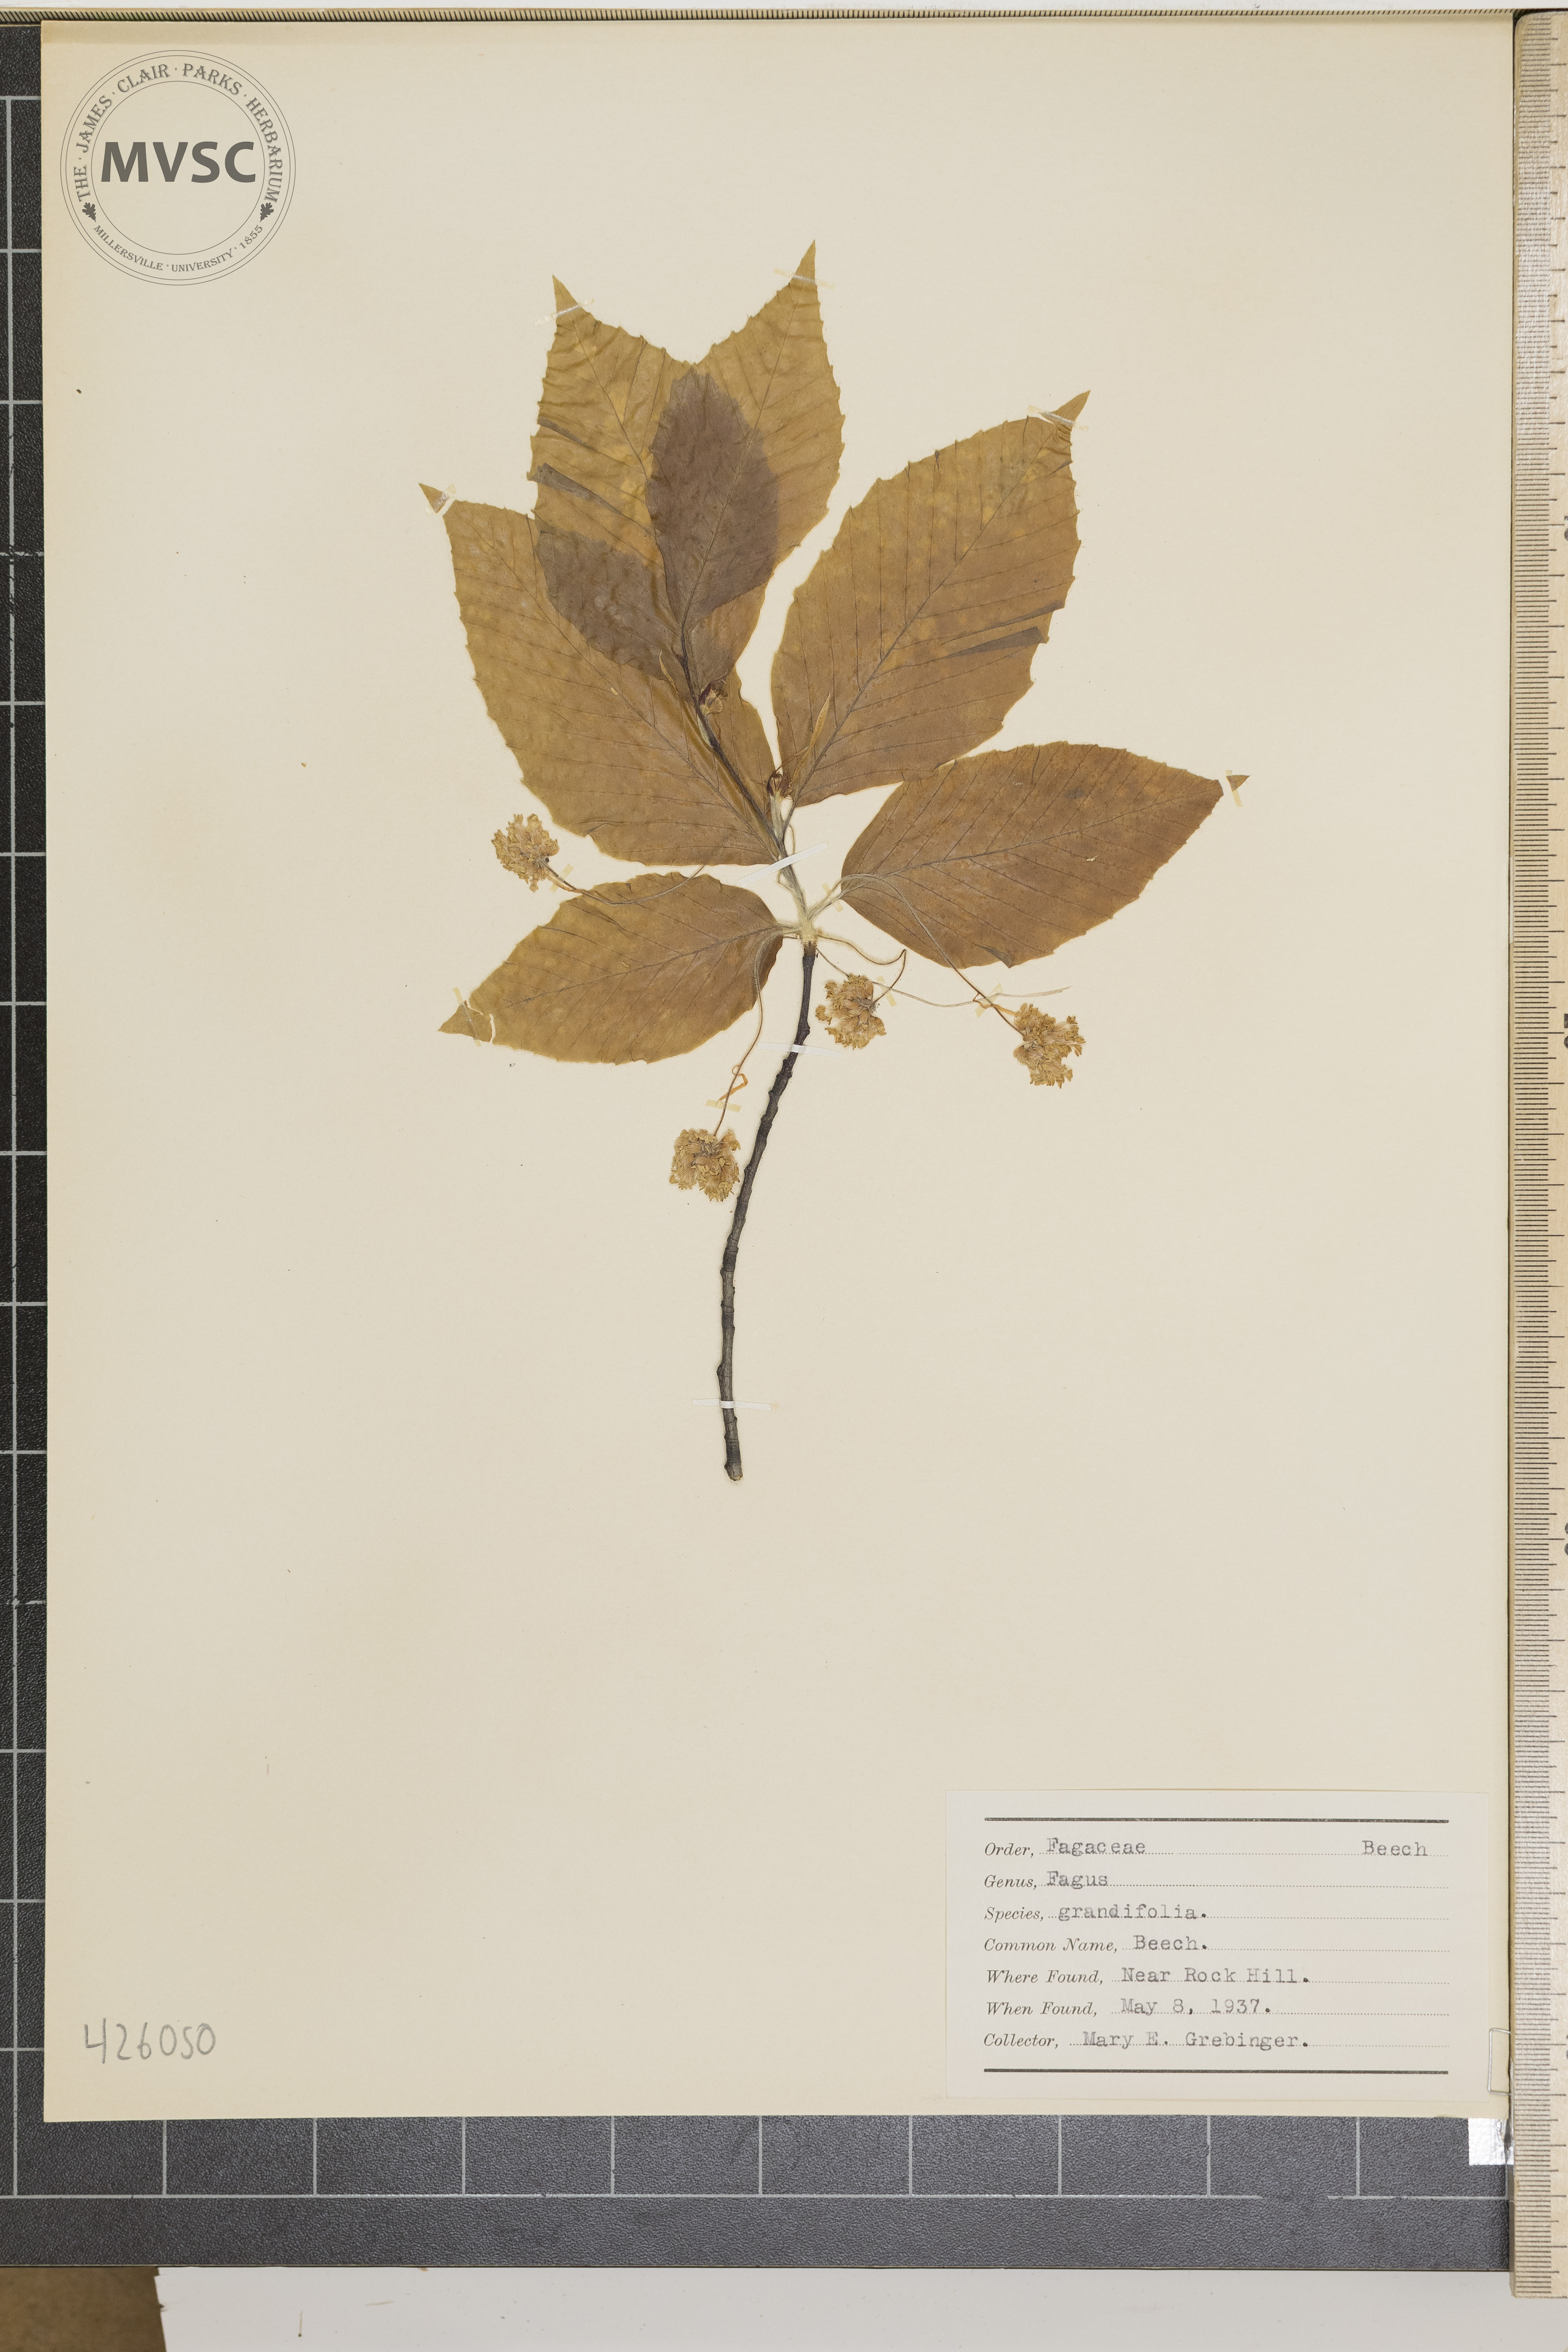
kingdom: Plantae
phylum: Tracheophyta
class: Magnoliopsida
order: Fagales
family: Fagaceae
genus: Fagus
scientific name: Fagus grandifolia
